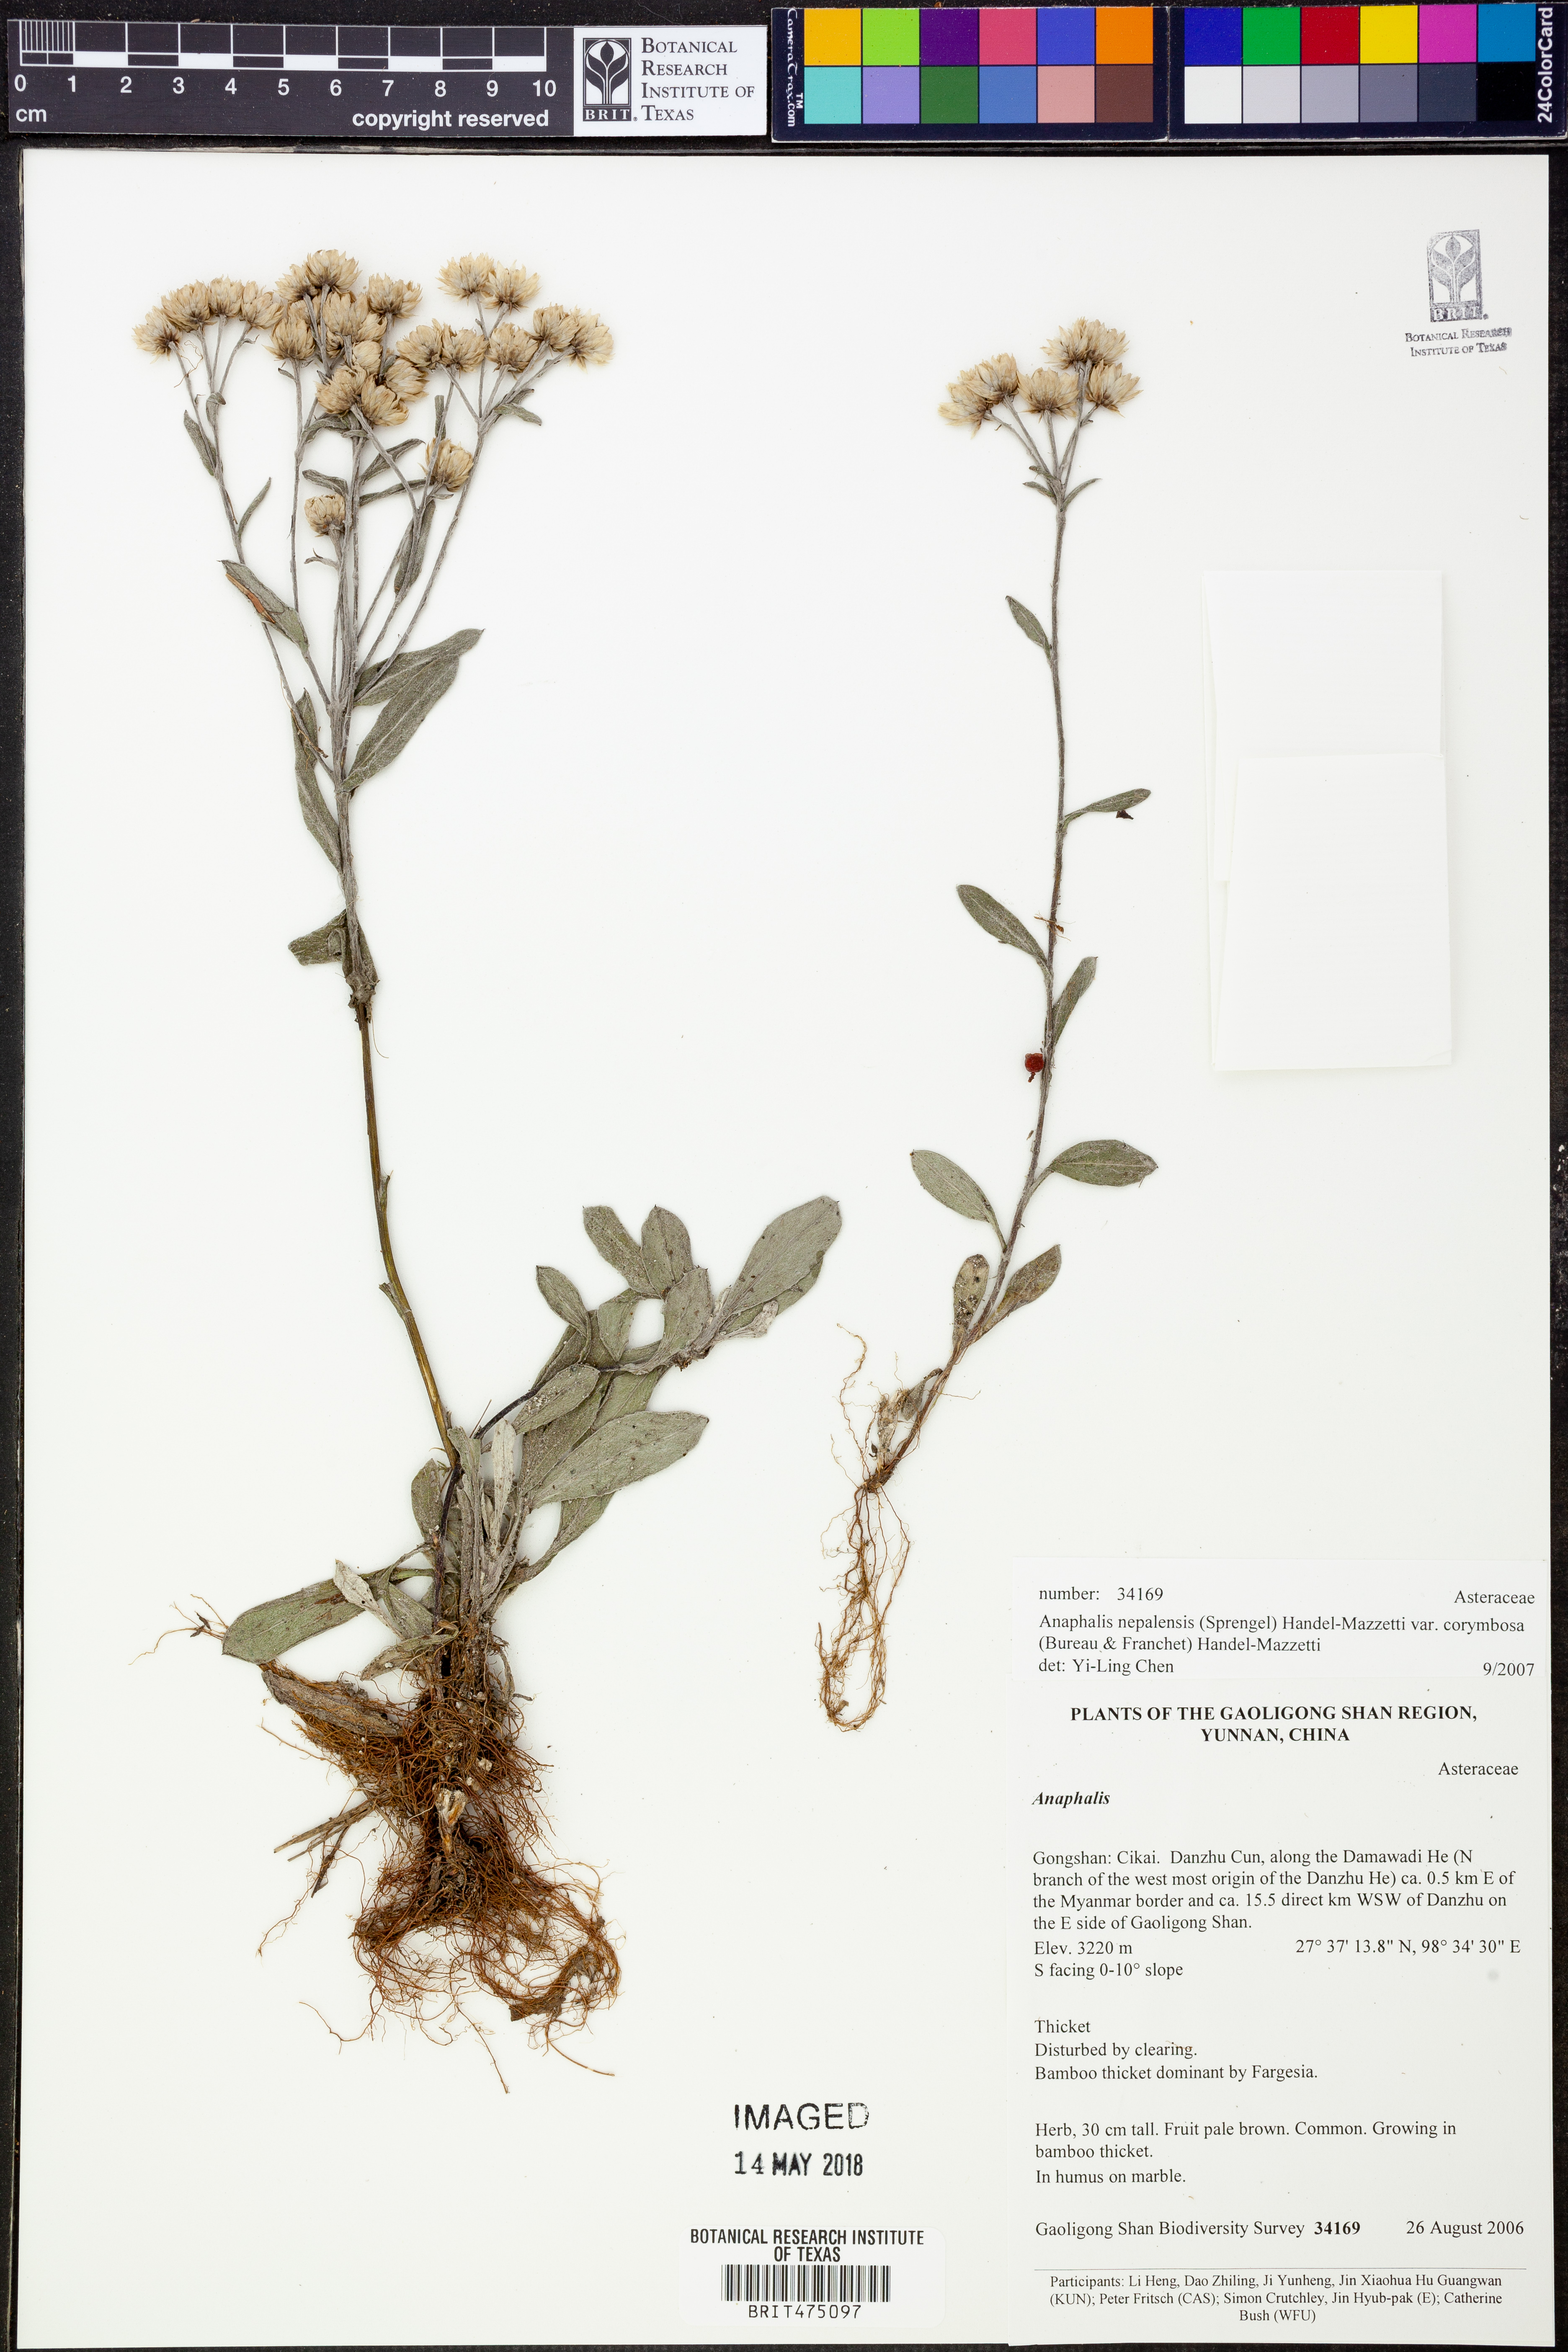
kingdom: Plantae
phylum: Tracheophyta
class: Magnoliopsida
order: Asterales
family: Asteraceae
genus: Anaphalis
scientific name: Anaphalis corymbosa
